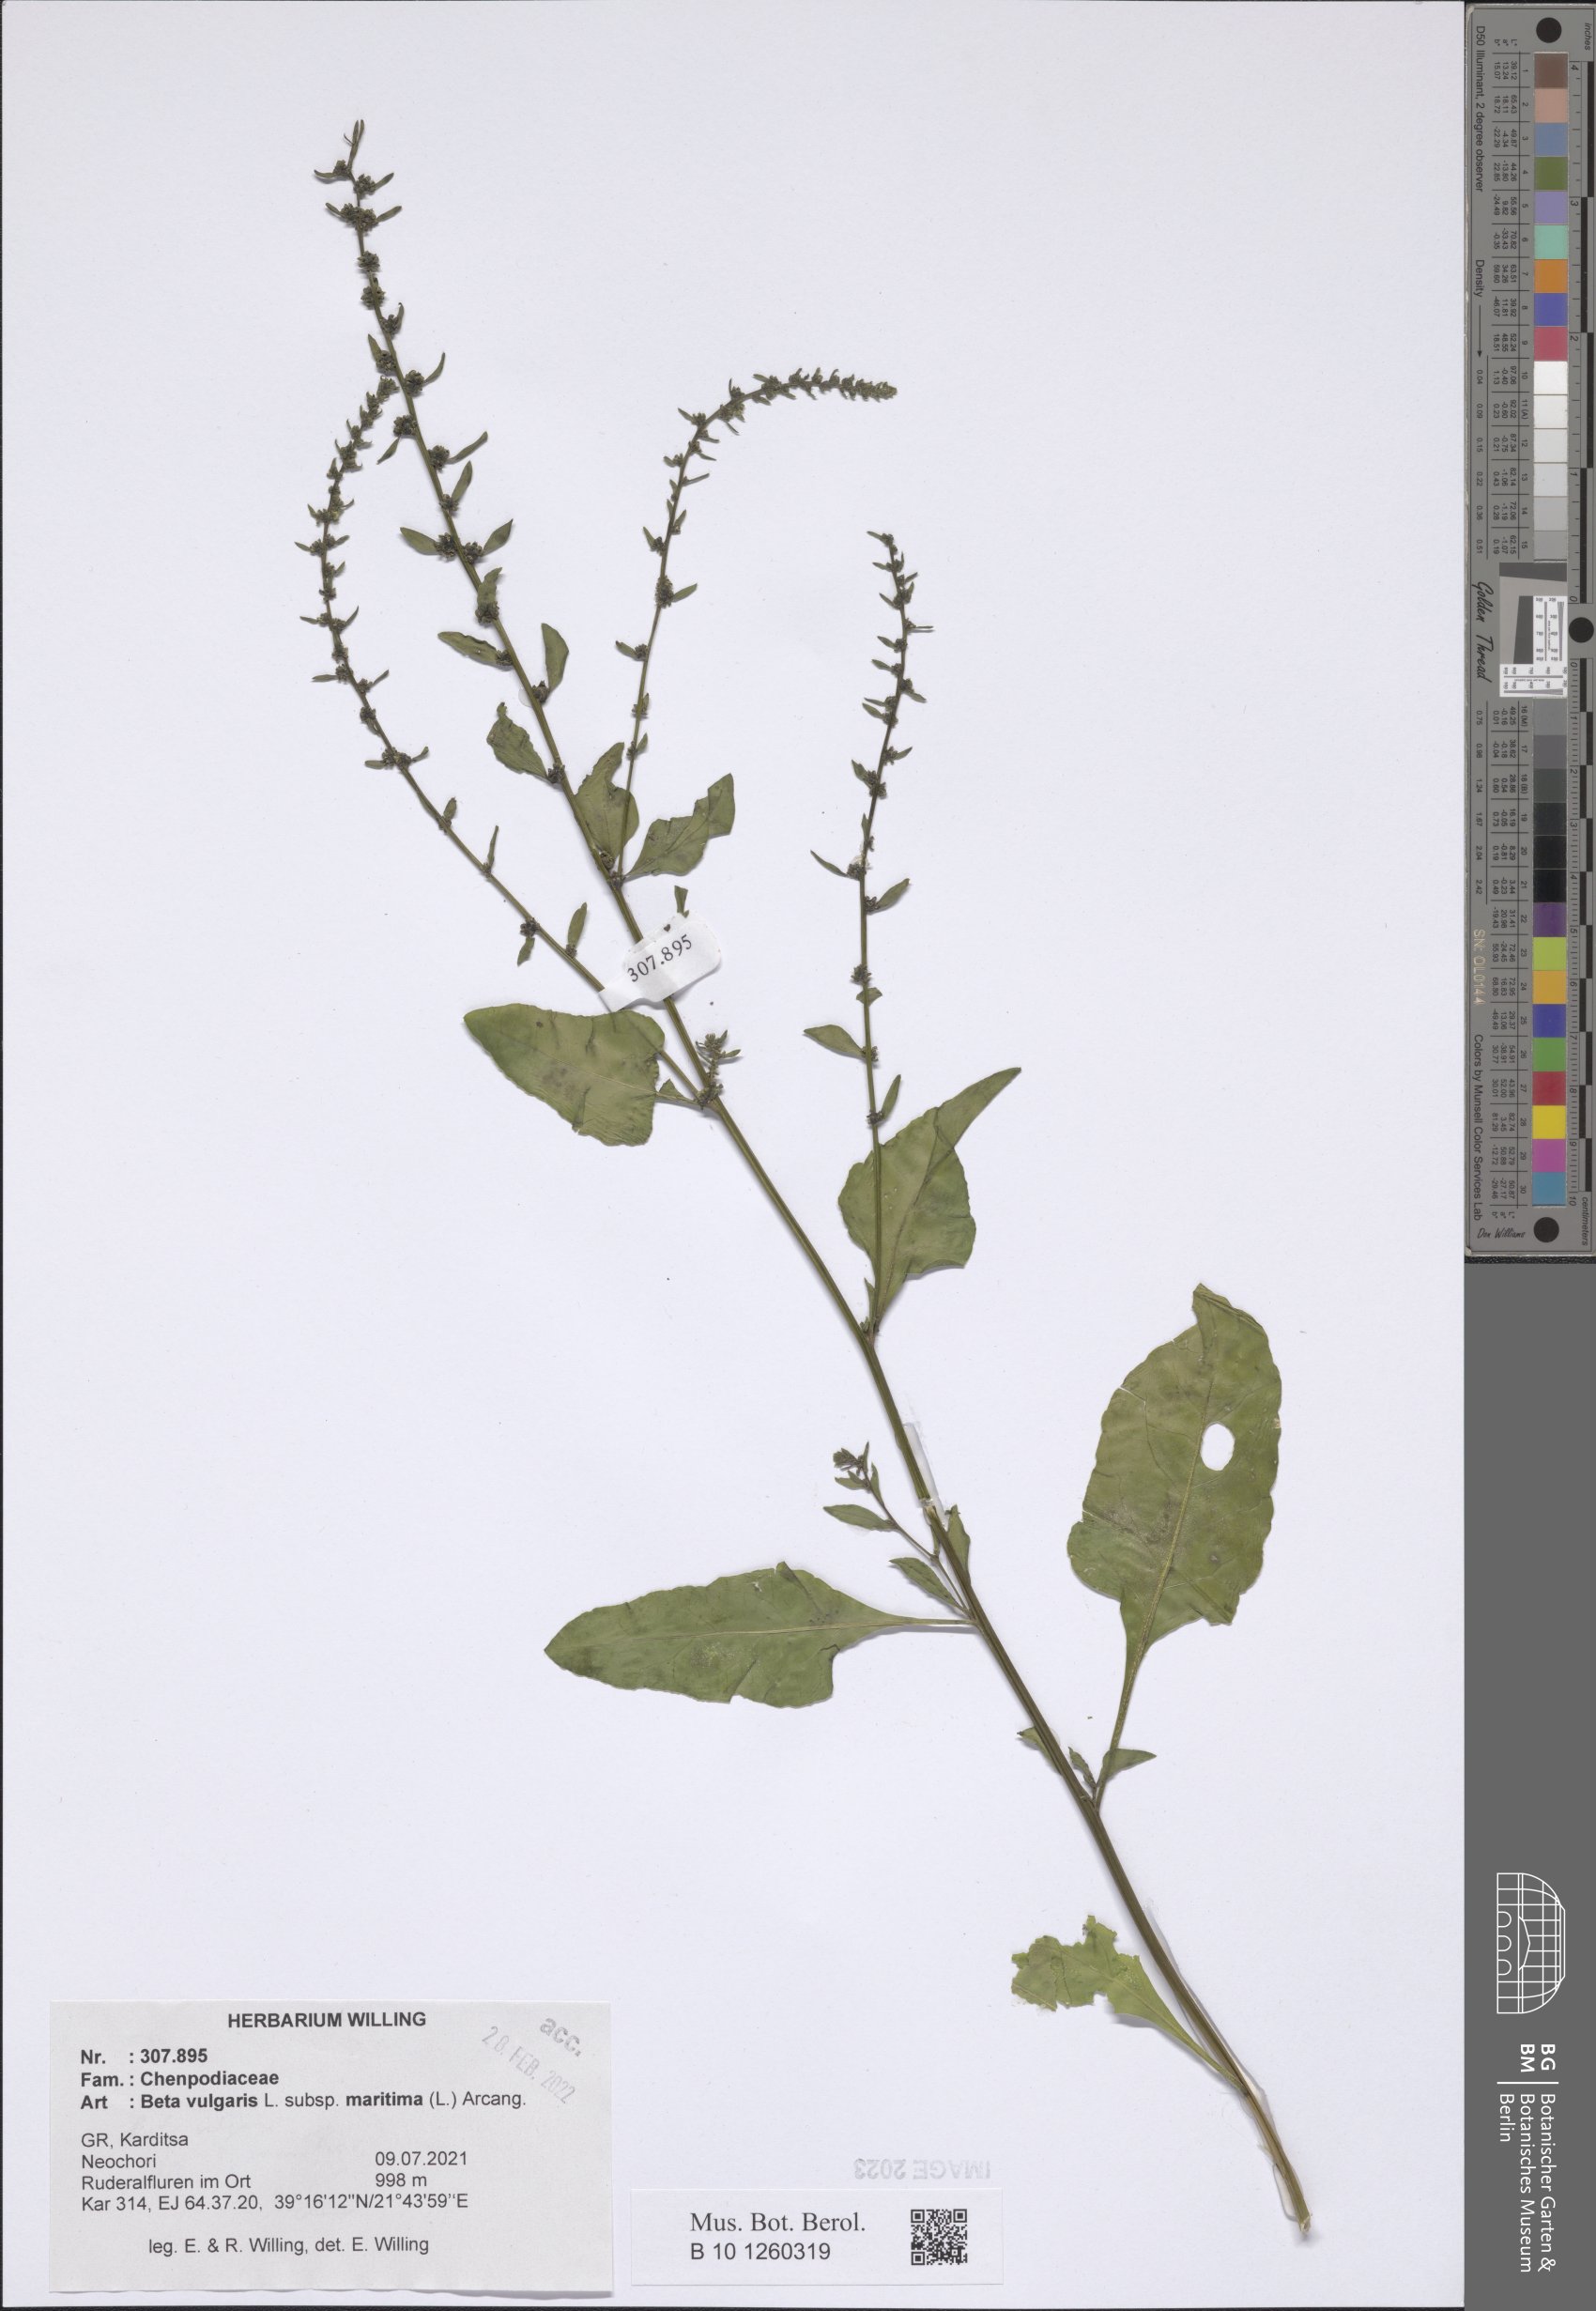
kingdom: Plantae
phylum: Tracheophyta
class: Magnoliopsida
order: Caryophyllales
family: Amaranthaceae
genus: Beta
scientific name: Beta maritima
